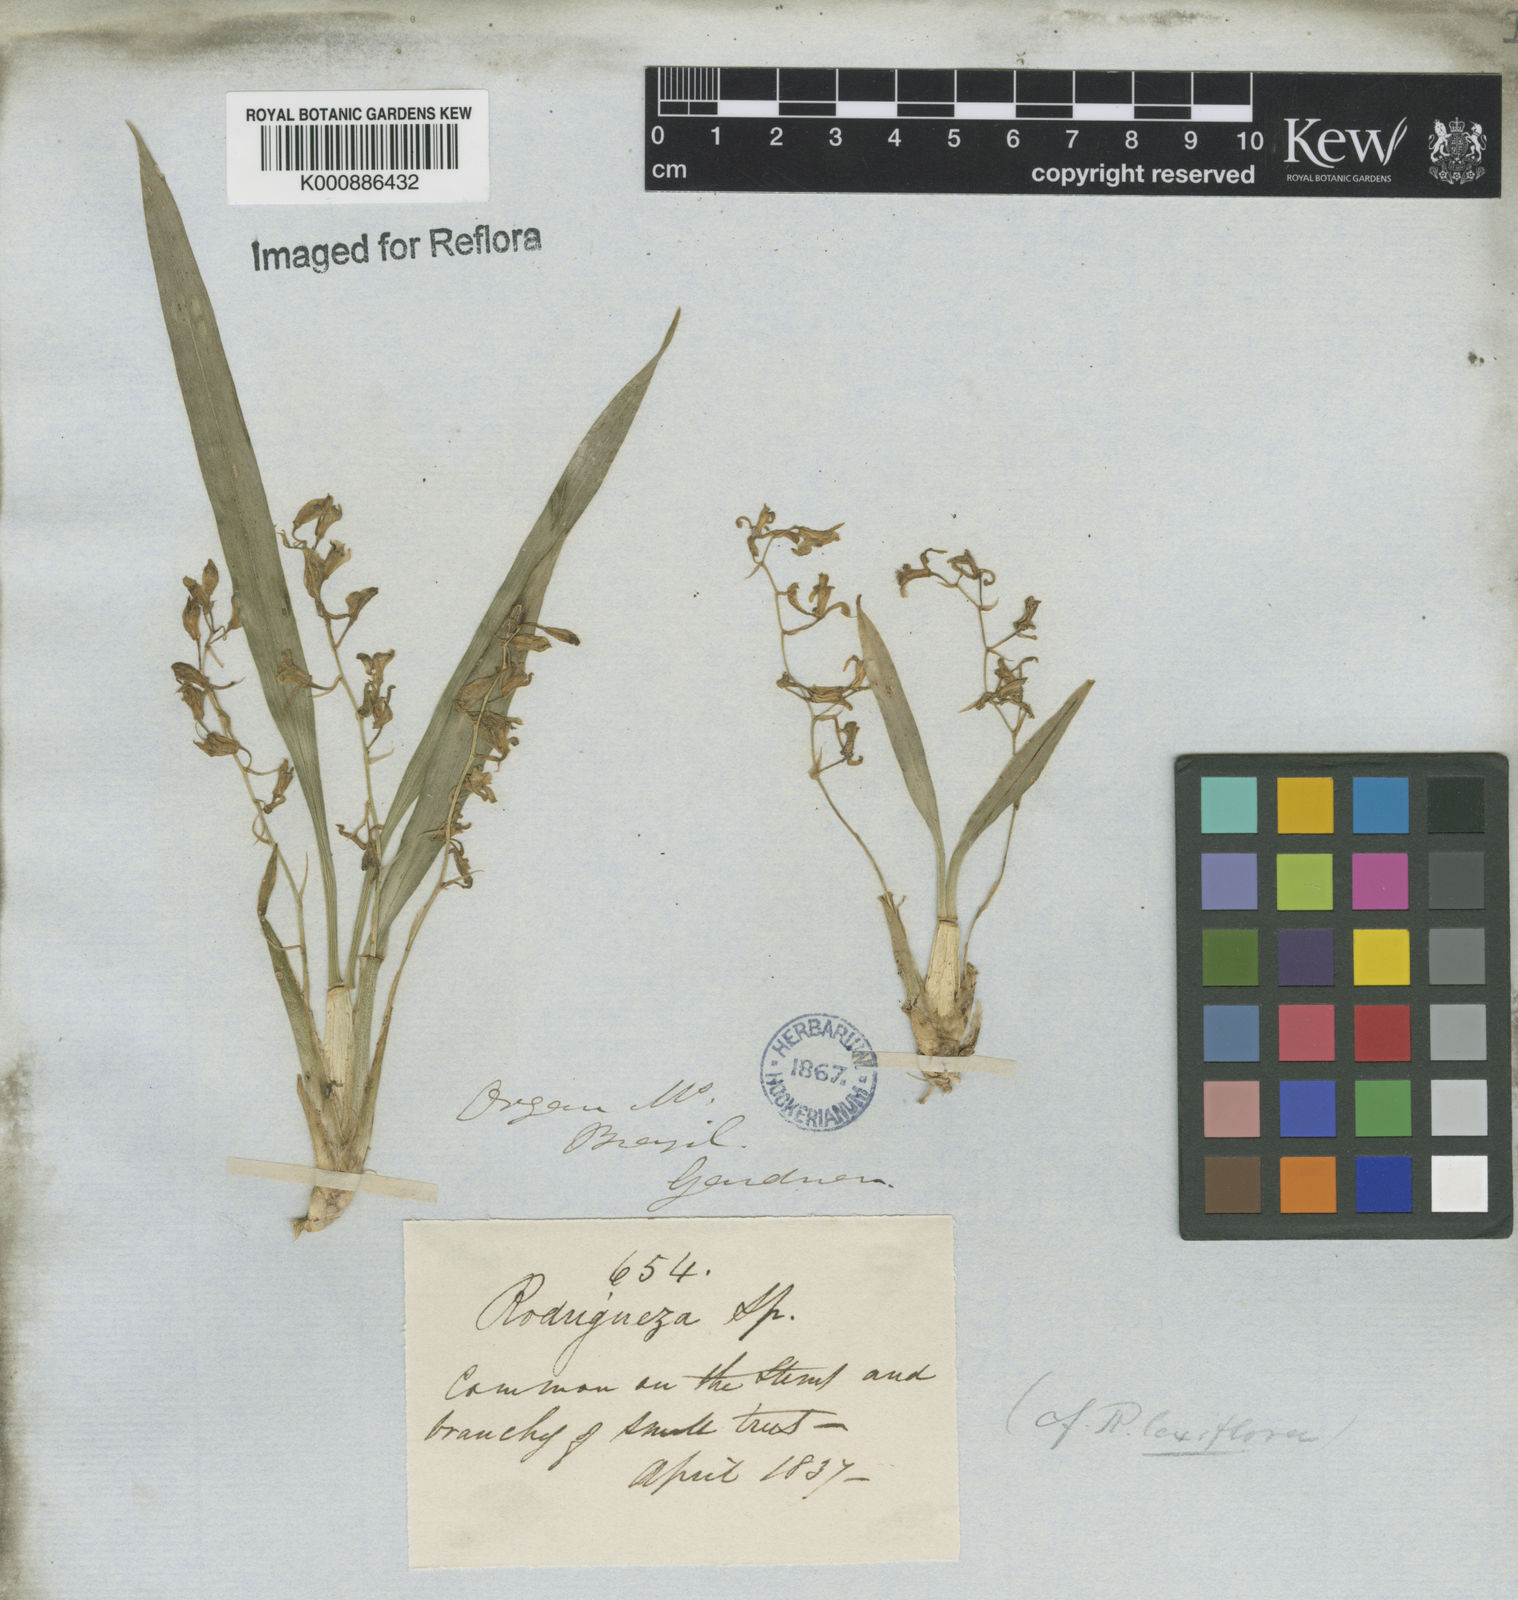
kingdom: Plantae
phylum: Tracheophyta
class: Liliopsida
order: Asparagales
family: Orchidaceae
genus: Gomesa
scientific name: Gomesa laxiflora
